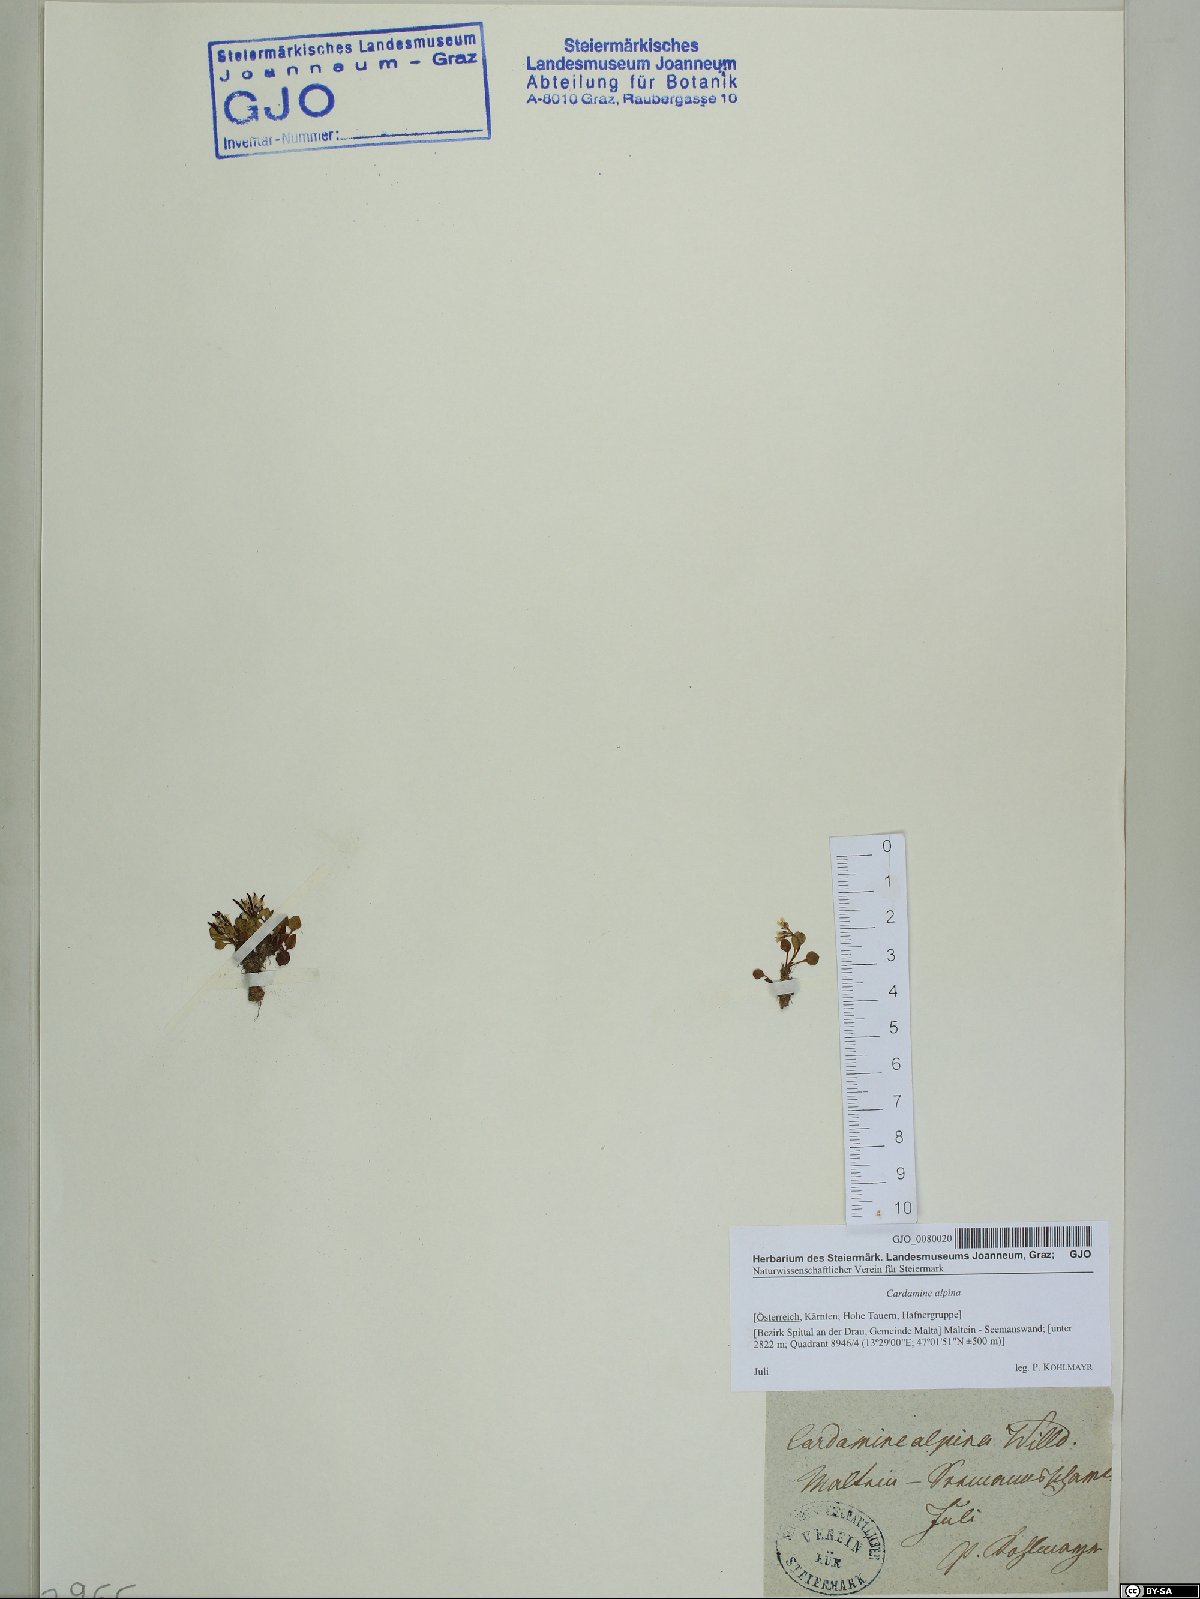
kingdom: Plantae
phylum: Tracheophyta
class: Magnoliopsida
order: Brassicales
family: Brassicaceae
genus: Cardamine
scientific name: Cardamine bellidifolia
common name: Alpine bittercress
